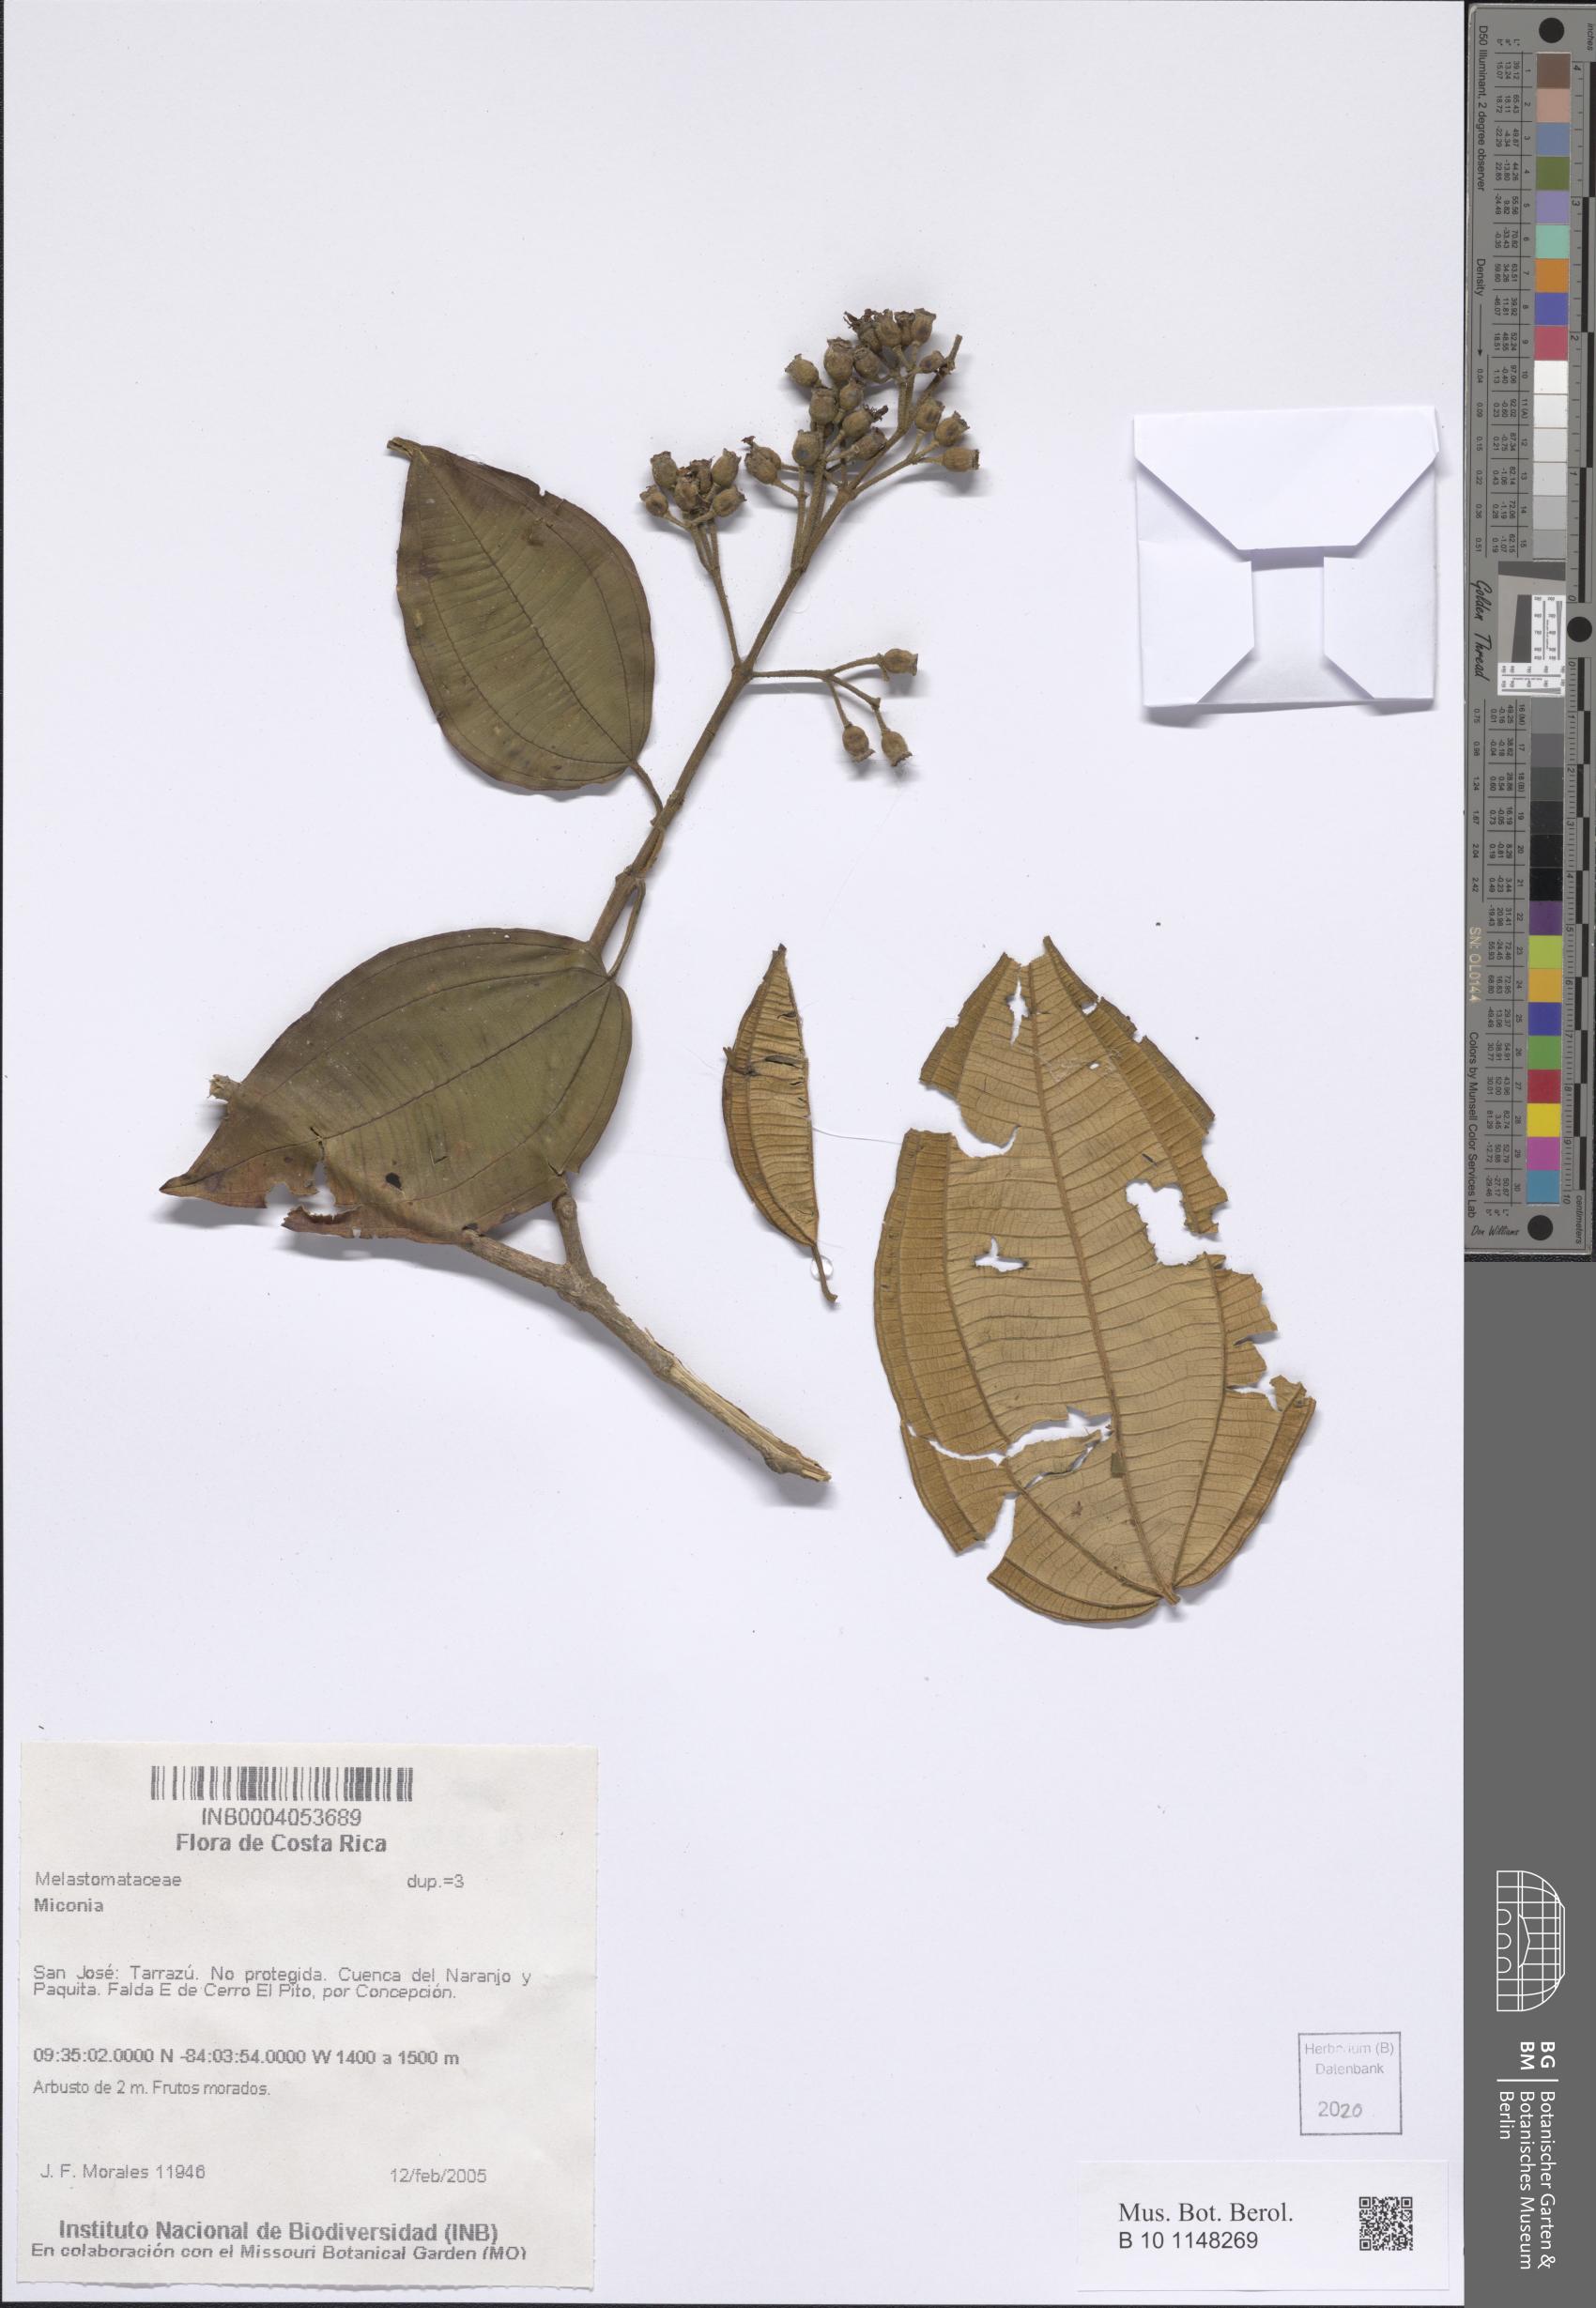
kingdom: Plantae
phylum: Tracheophyta
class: Magnoliopsida
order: Myrtales
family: Melastomataceae
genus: Miconia
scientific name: Miconia
